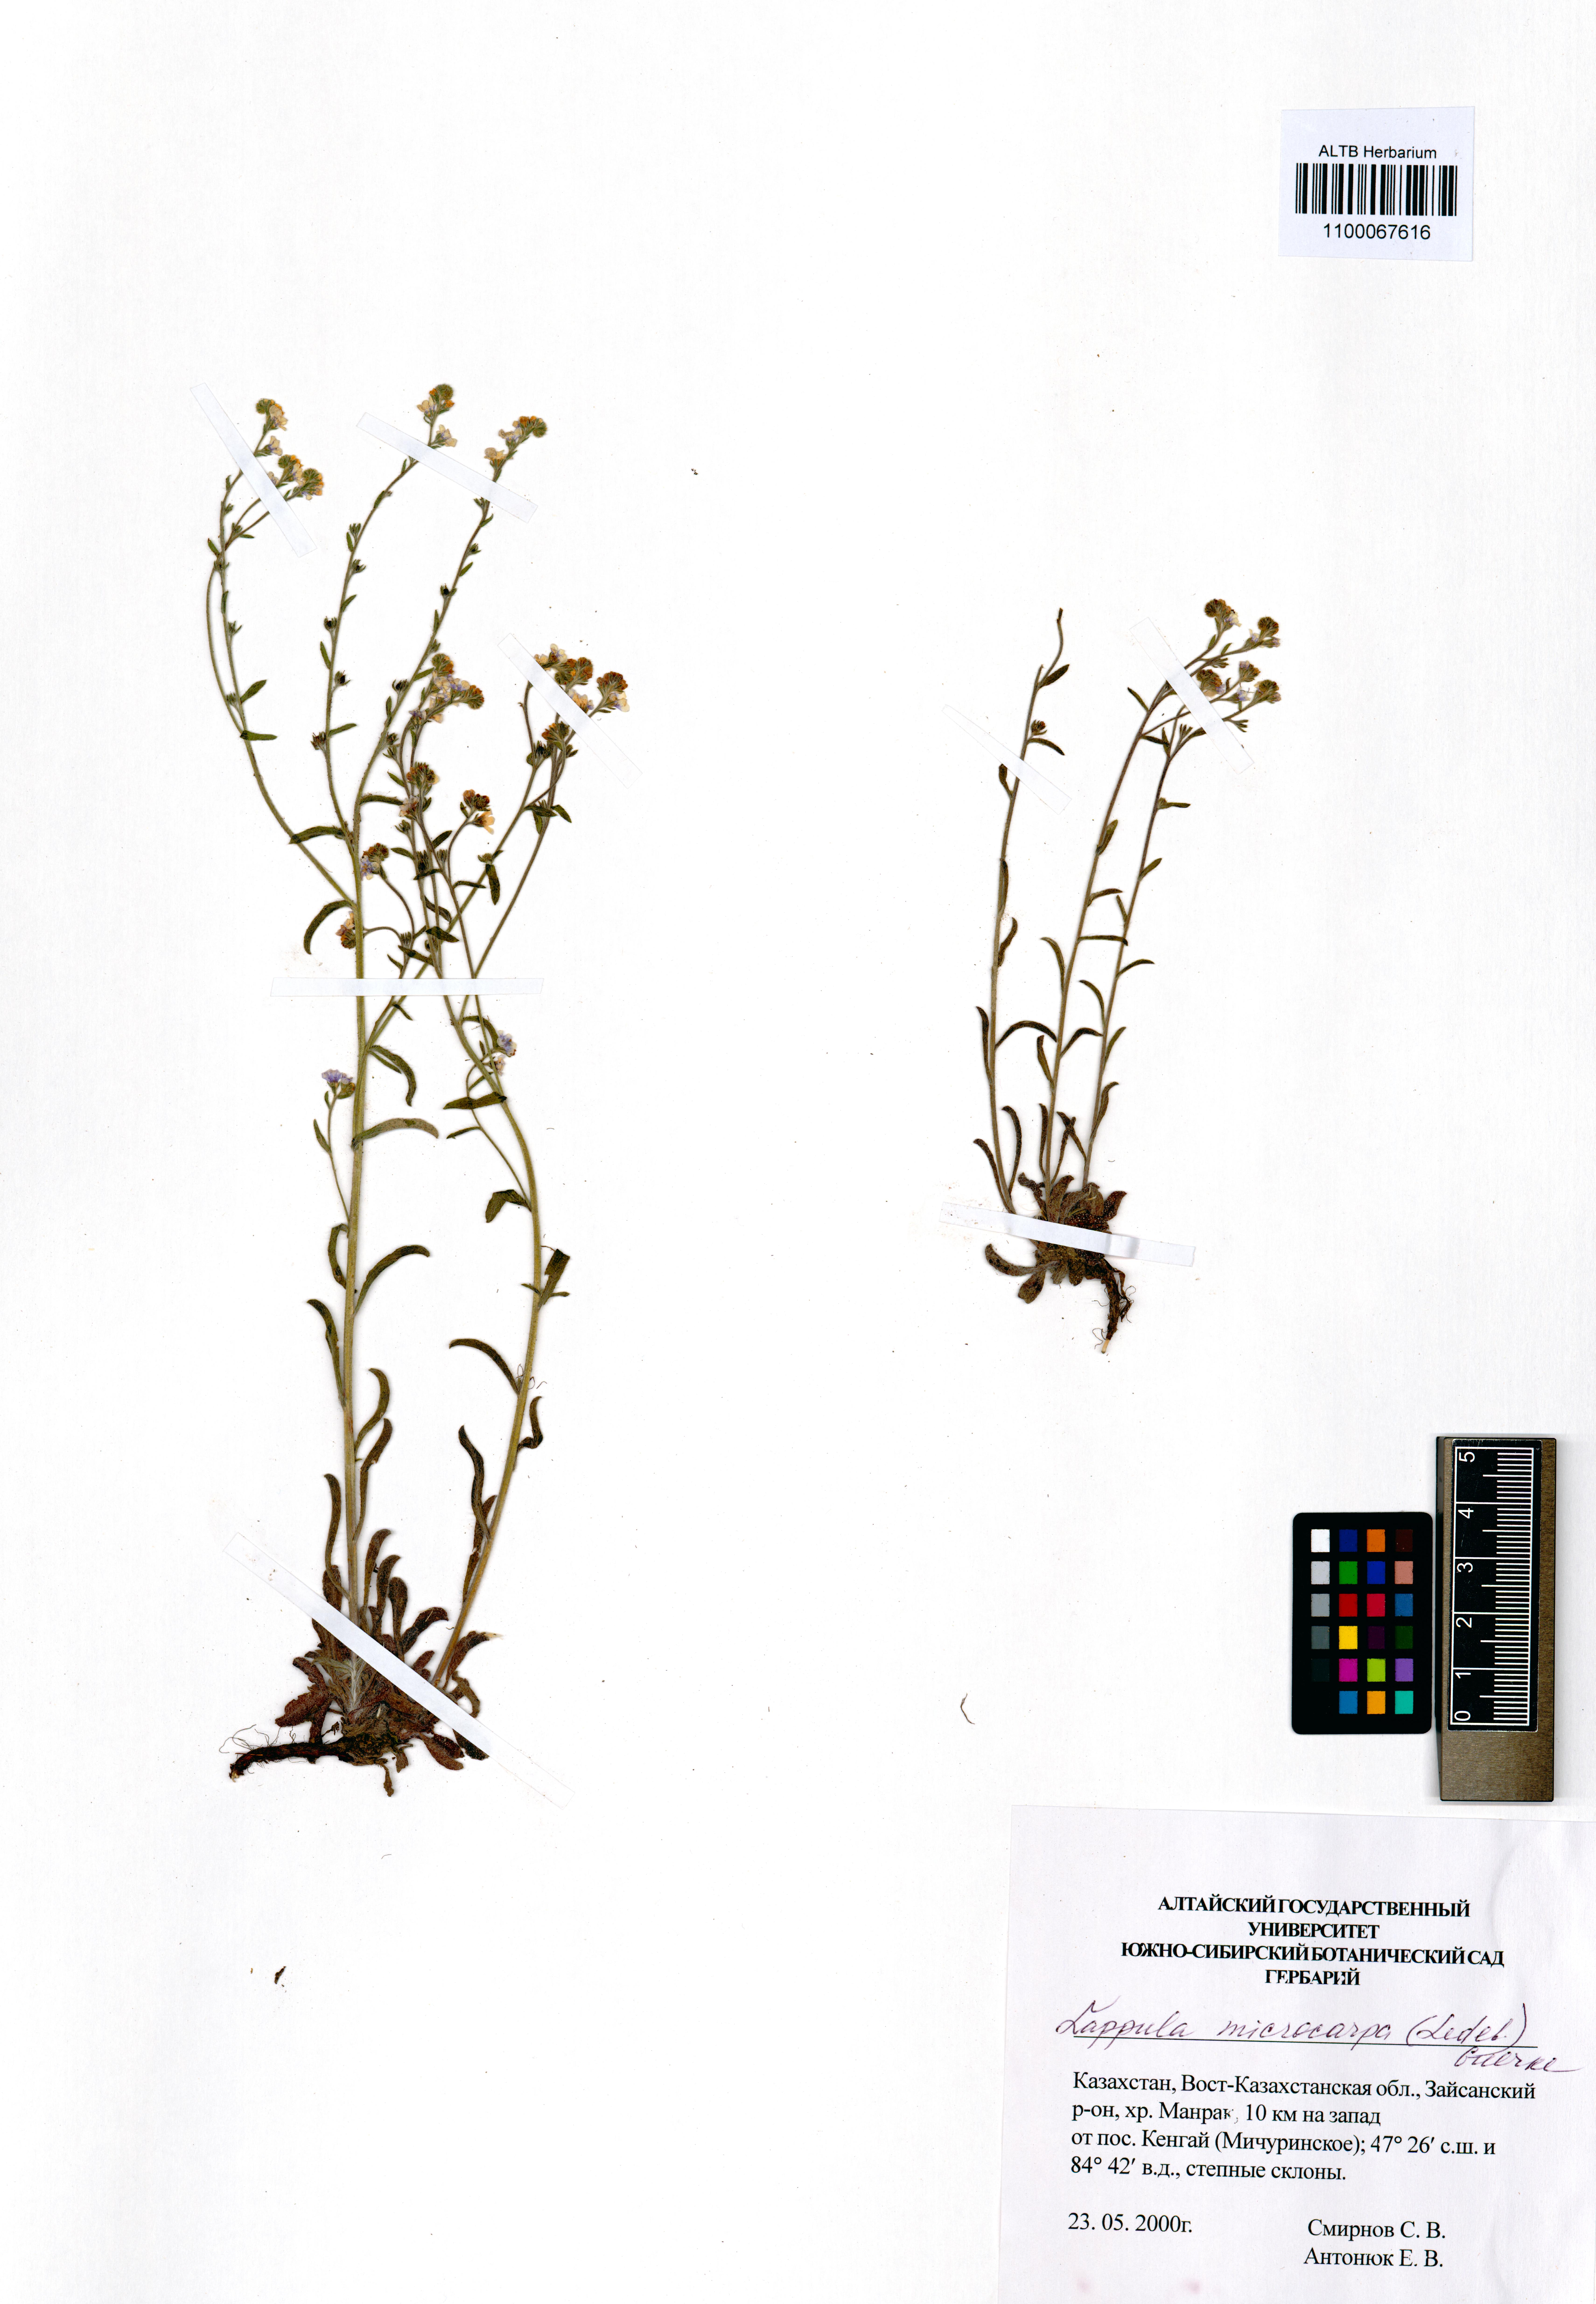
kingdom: Plantae
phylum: Tracheophyta
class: Magnoliopsida
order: Boraginales
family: Boraginaceae
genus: Lappula
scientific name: Lappula microcarpa
